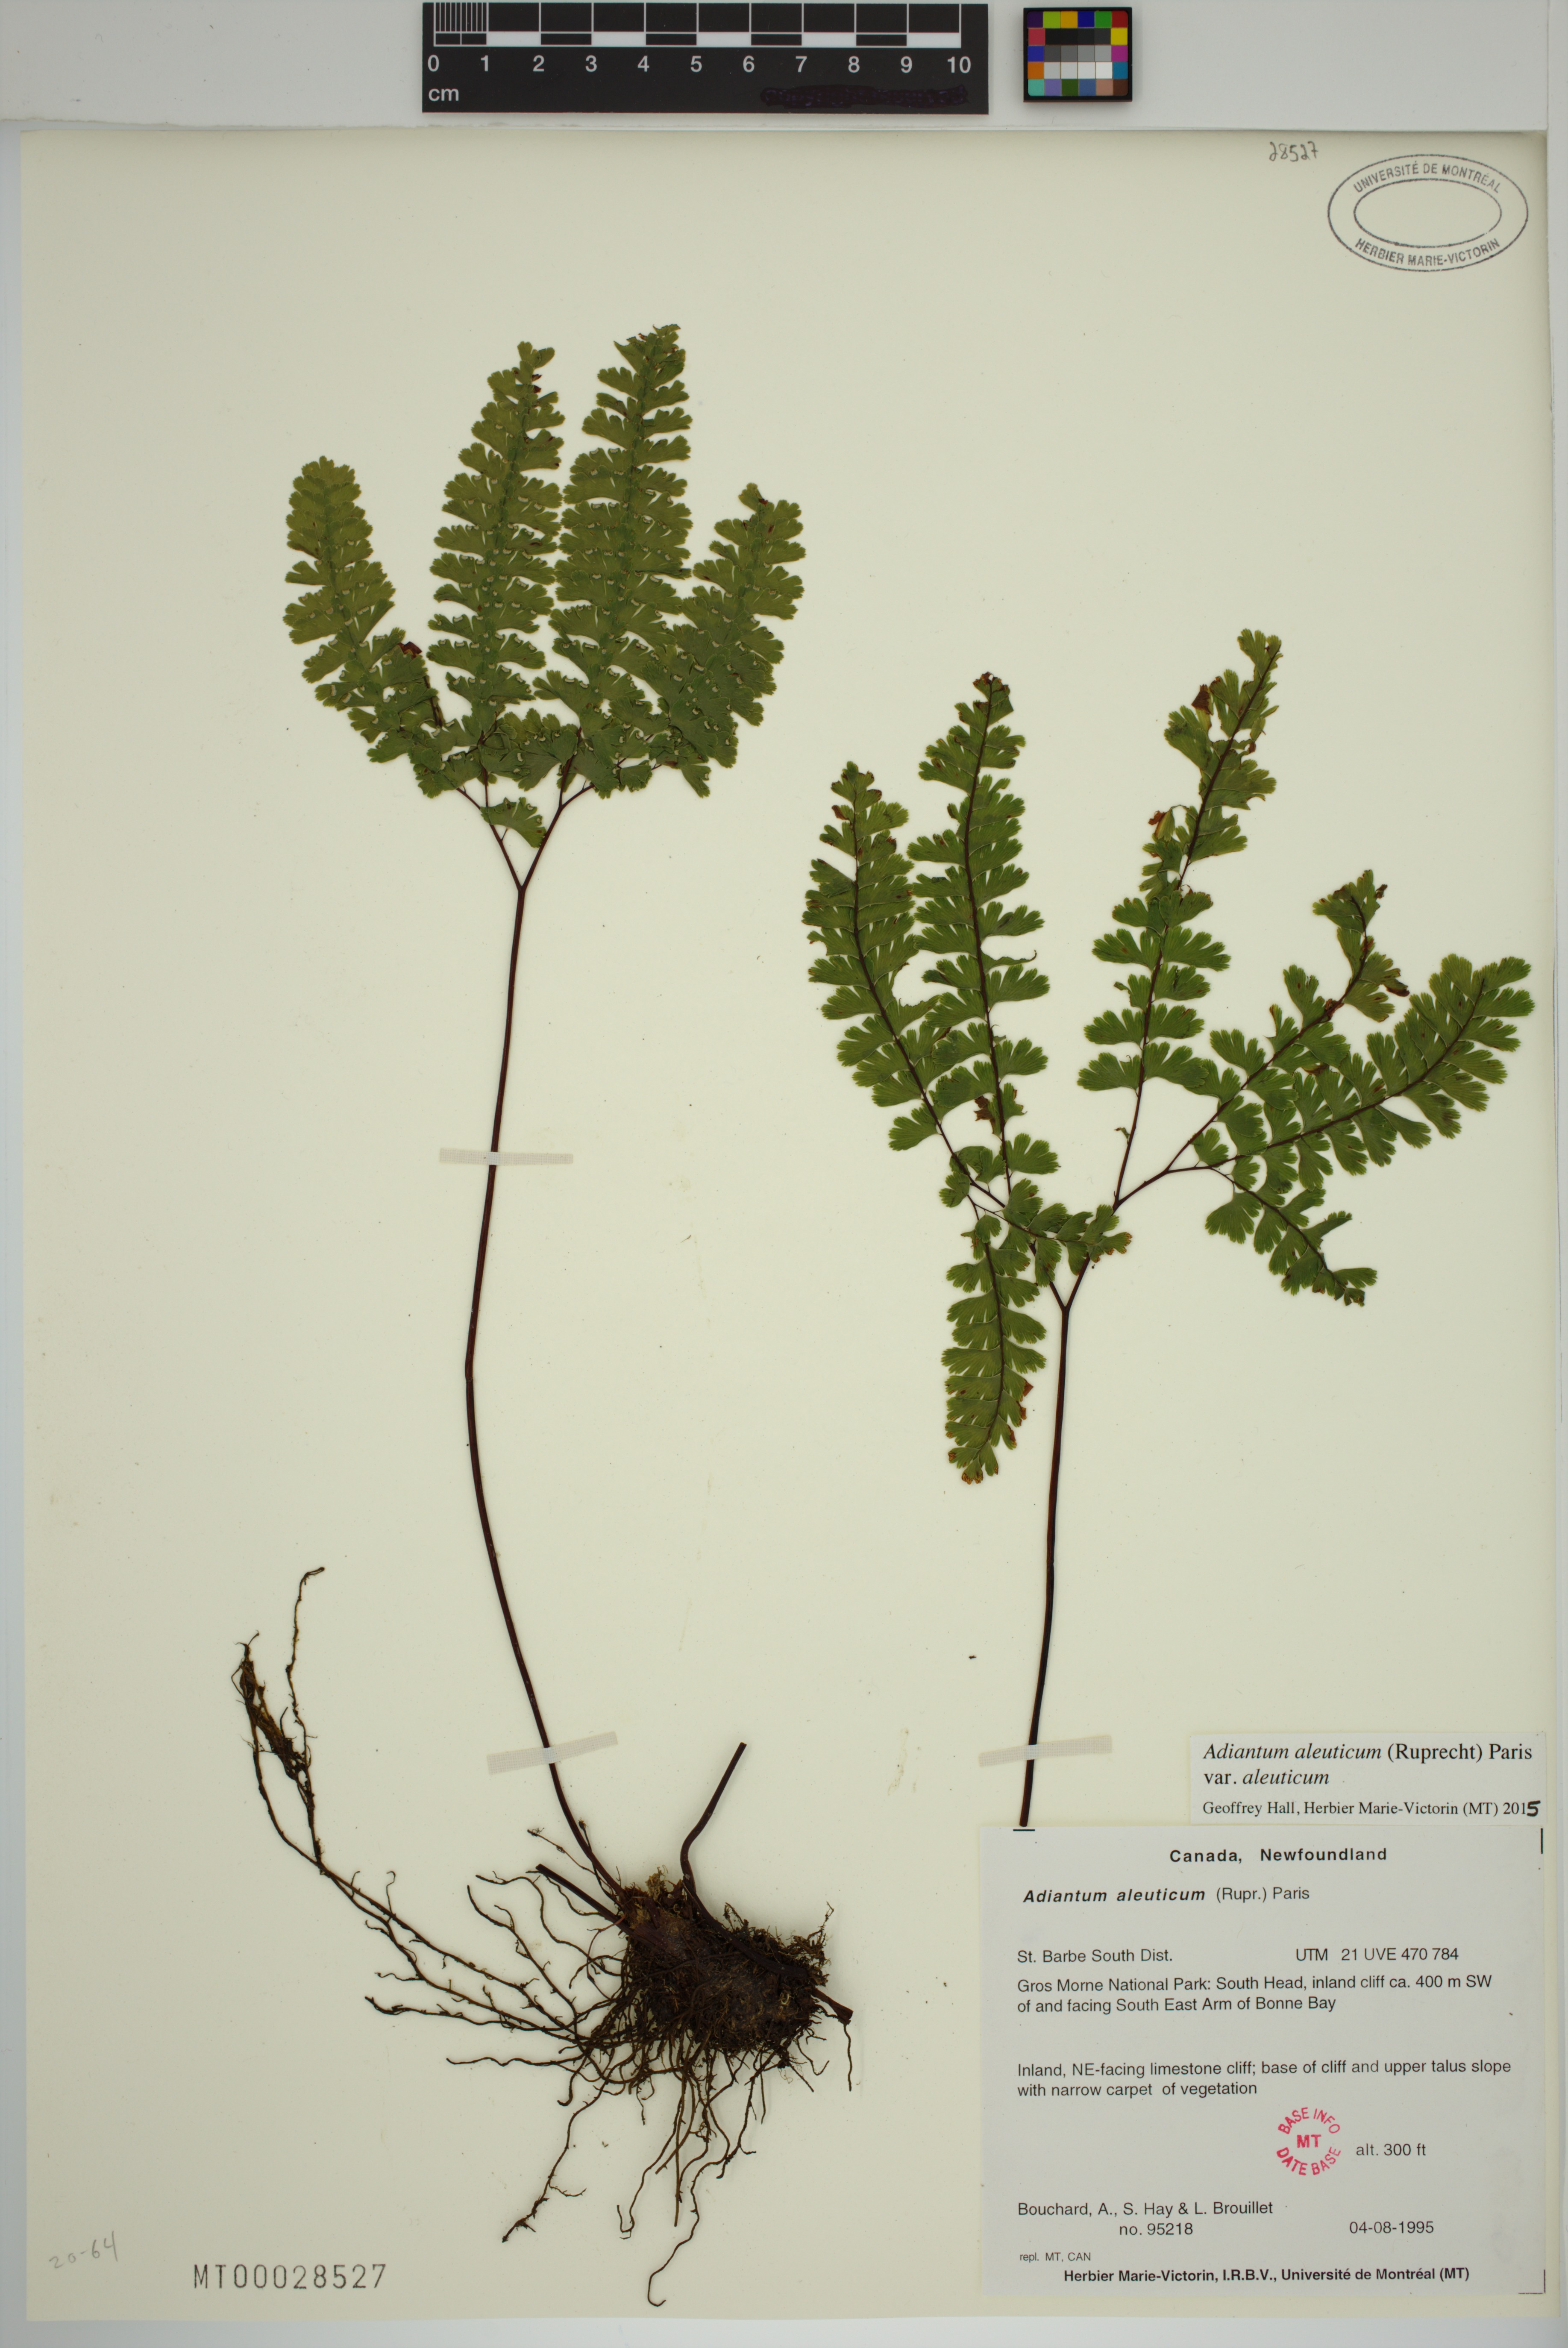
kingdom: Plantae
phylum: Tracheophyta
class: Polypodiopsida
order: Polypodiales
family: Pteridaceae
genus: Adiantum
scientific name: Adiantum aleuticum
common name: Aleutian maidenhair fern
